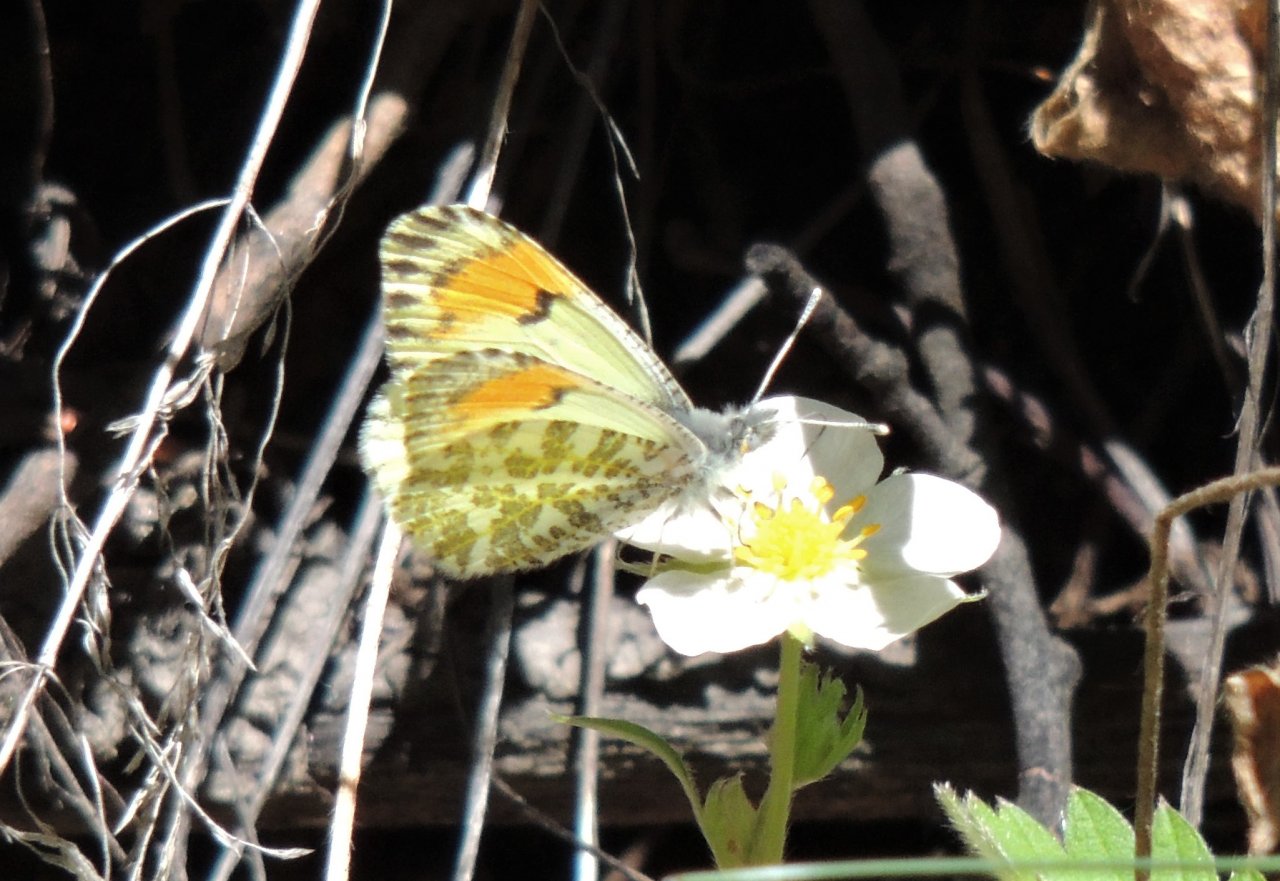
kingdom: Animalia
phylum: Arthropoda
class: Insecta
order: Lepidoptera
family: Pieridae
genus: Anthocharis
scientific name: Anthocharis sara
